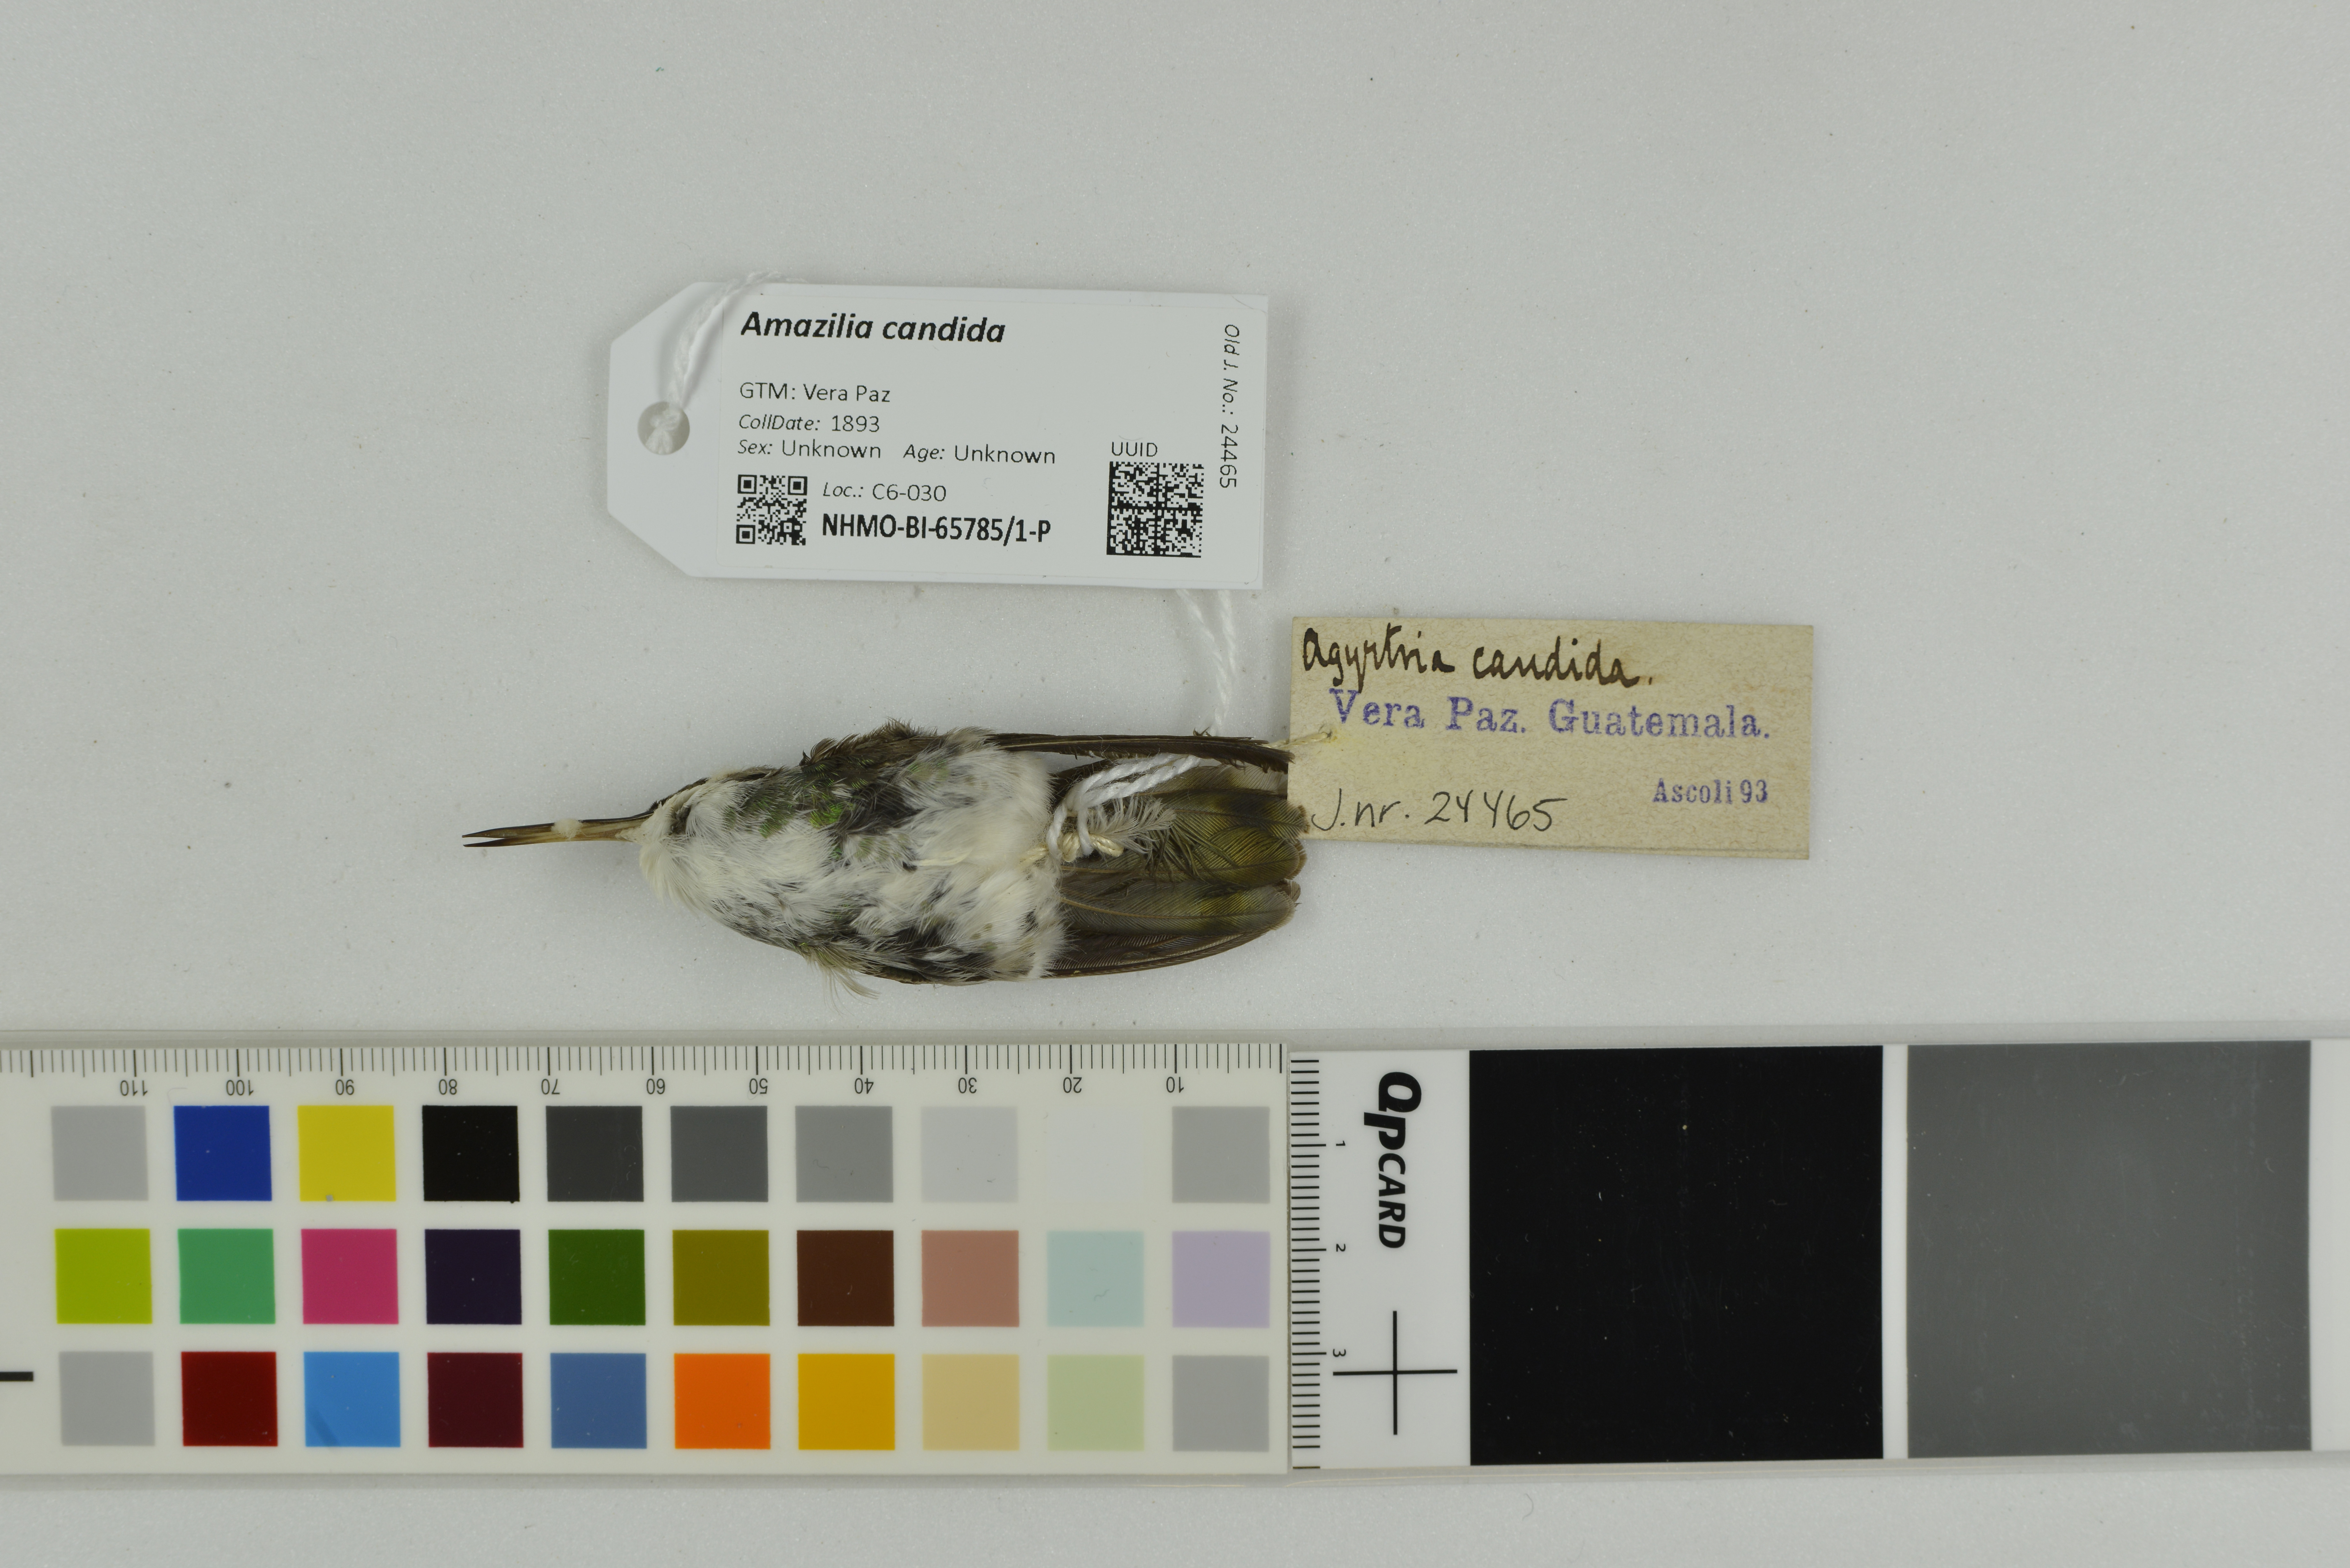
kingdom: Animalia
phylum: Chordata
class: Aves
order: Apodiformes
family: Trochilidae
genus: Chlorestes
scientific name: Chlorestes candida
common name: White-bellied emerald
